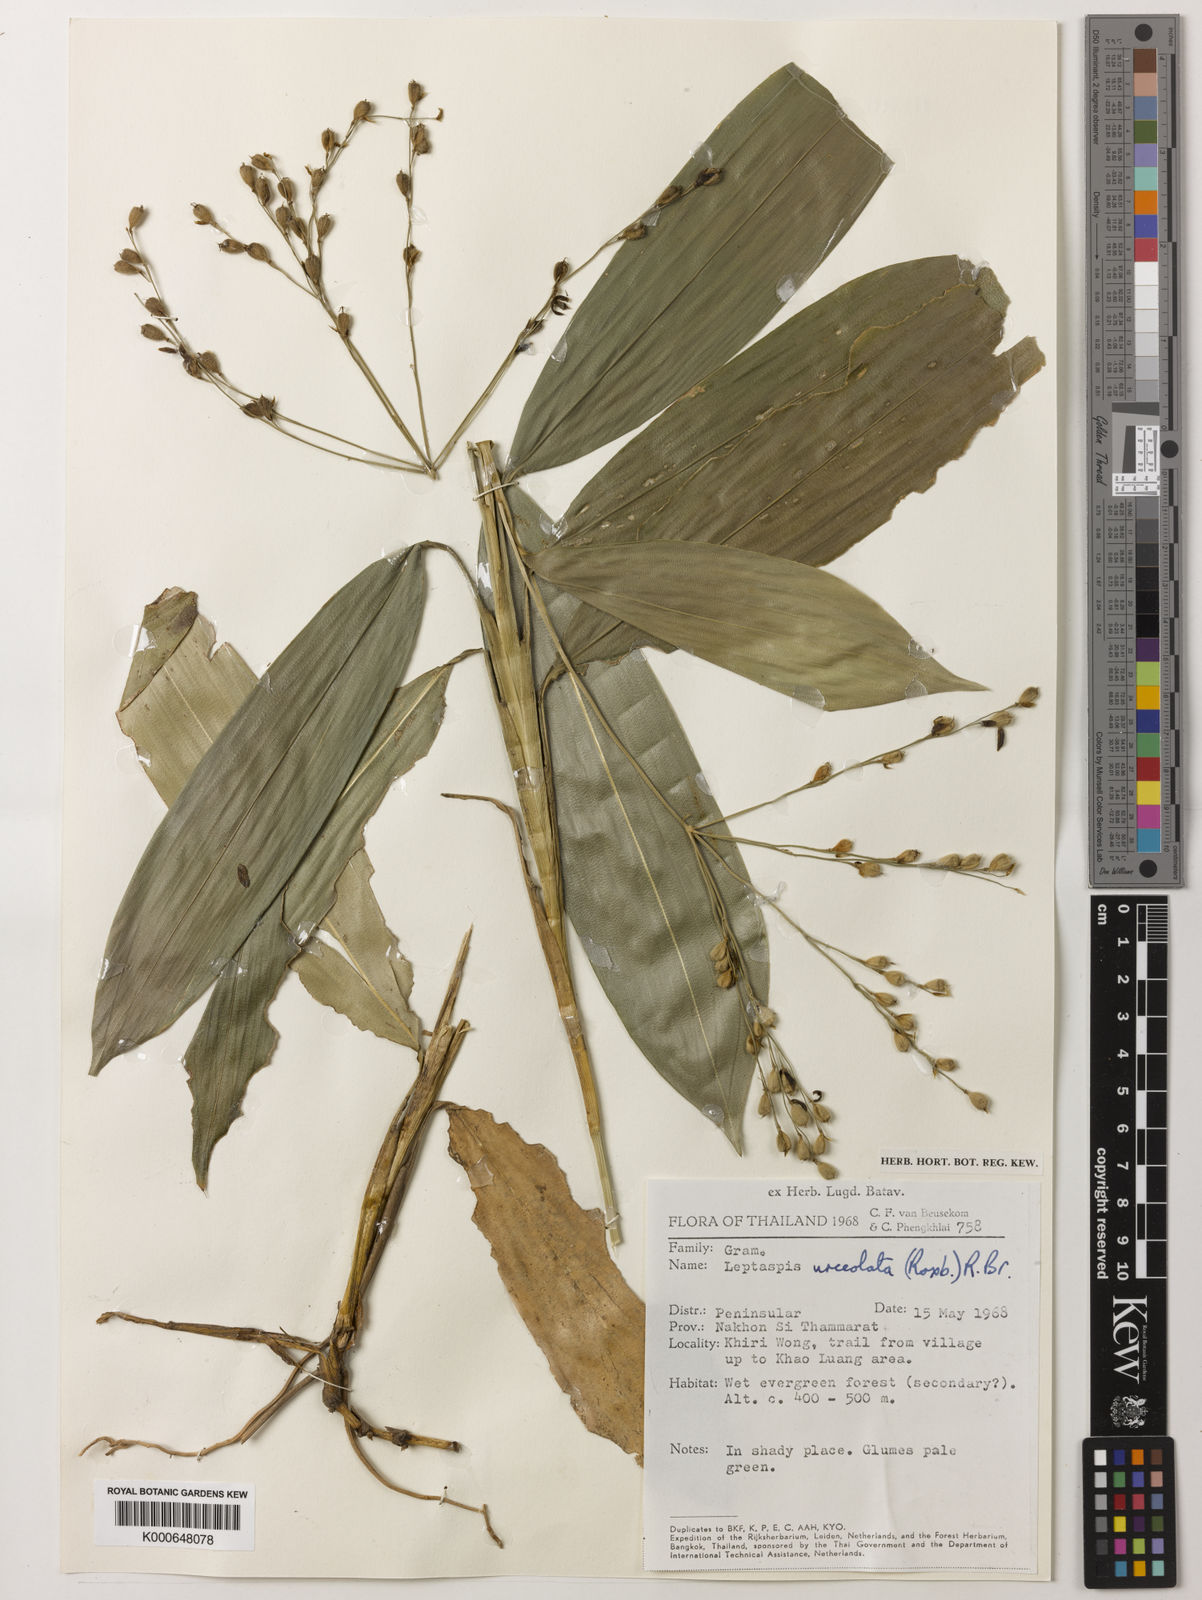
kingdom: Plantae
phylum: Tracheophyta
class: Liliopsida
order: Poales
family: Poaceae
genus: Scrotochloa
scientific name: Scrotochloa urceolata
